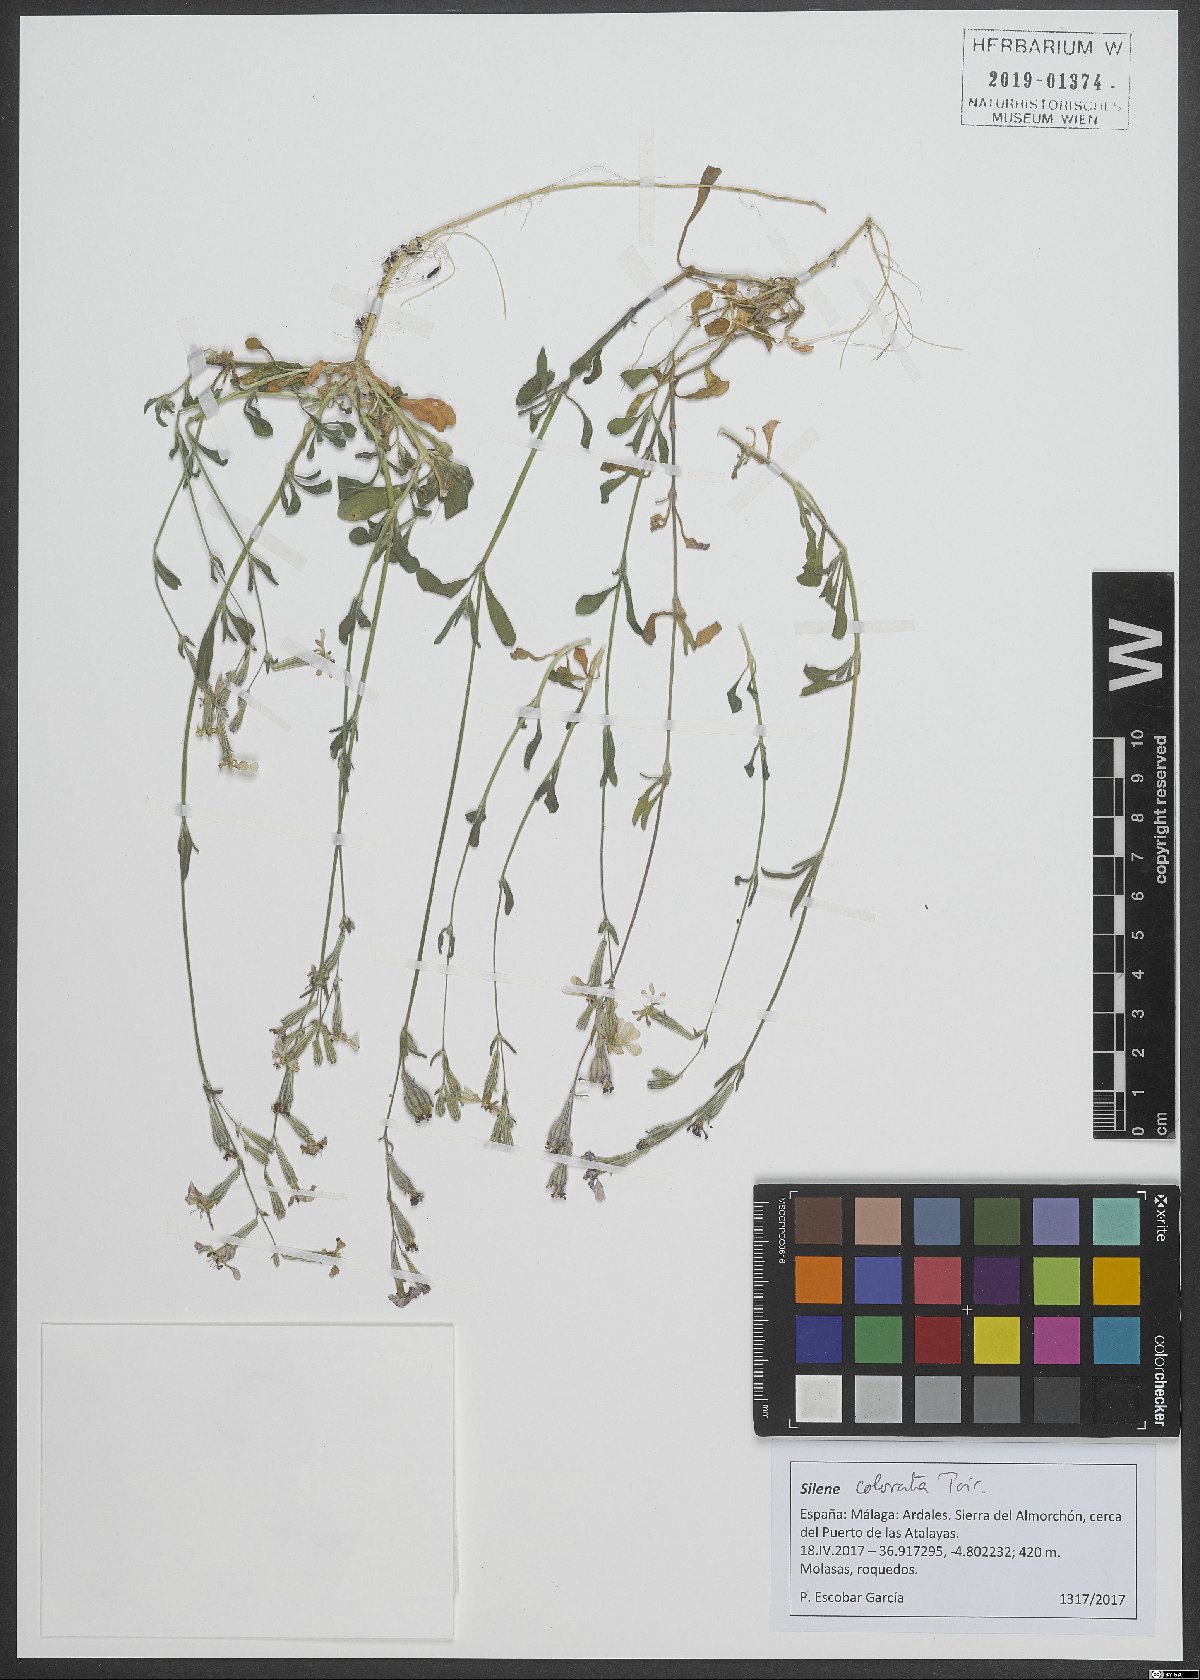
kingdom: Plantae
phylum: Tracheophyta
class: Magnoliopsida
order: Caryophyllales
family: Caryophyllaceae
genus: Silene
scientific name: Silene colorata
